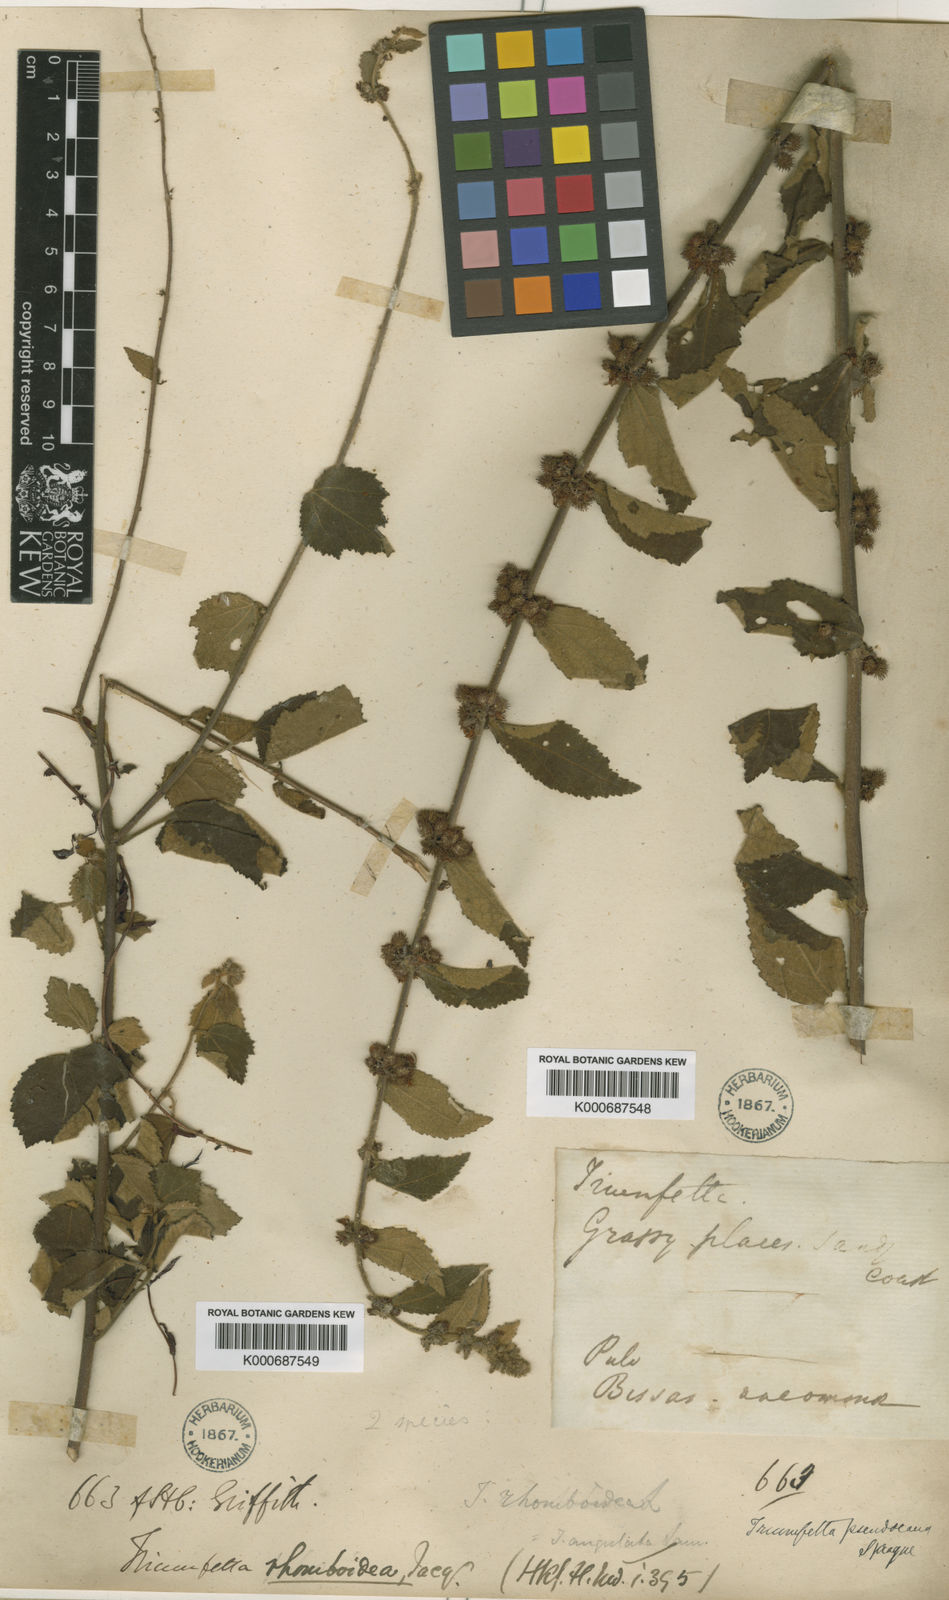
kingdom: Plantae
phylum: Tracheophyta
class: Magnoliopsida
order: Malvales
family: Malvaceae
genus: Triumfetta
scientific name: Triumfetta tomentosa
